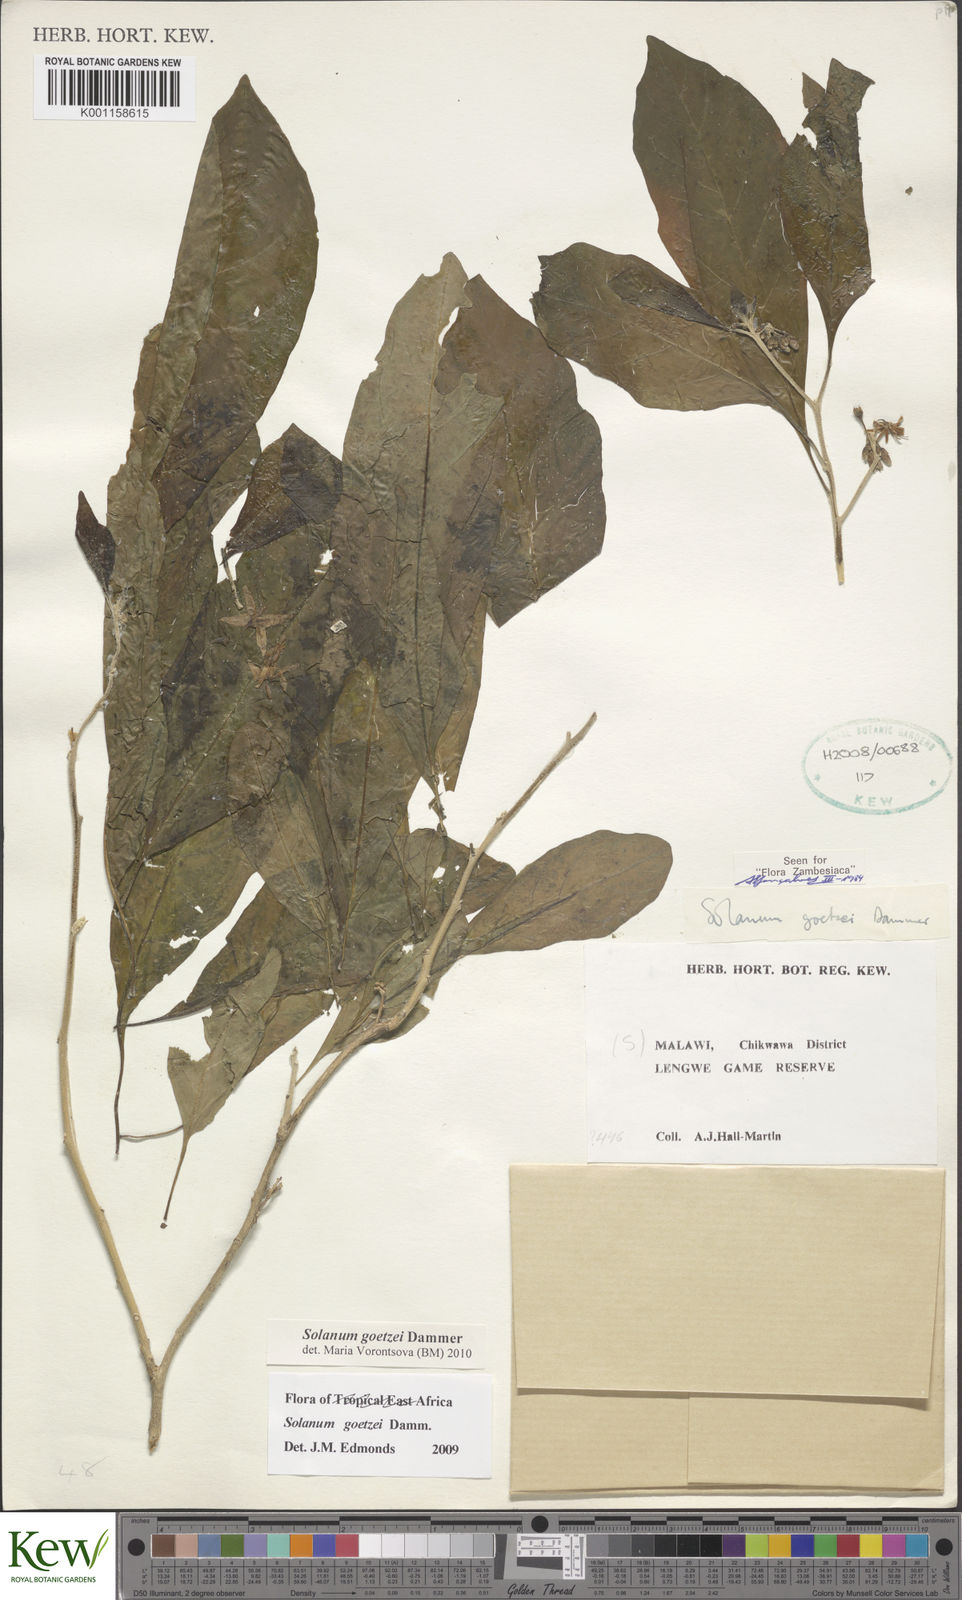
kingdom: Plantae
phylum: Tracheophyta
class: Magnoliopsida
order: Solanales
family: Solanaceae
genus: Solanum
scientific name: Solanum goetzei
